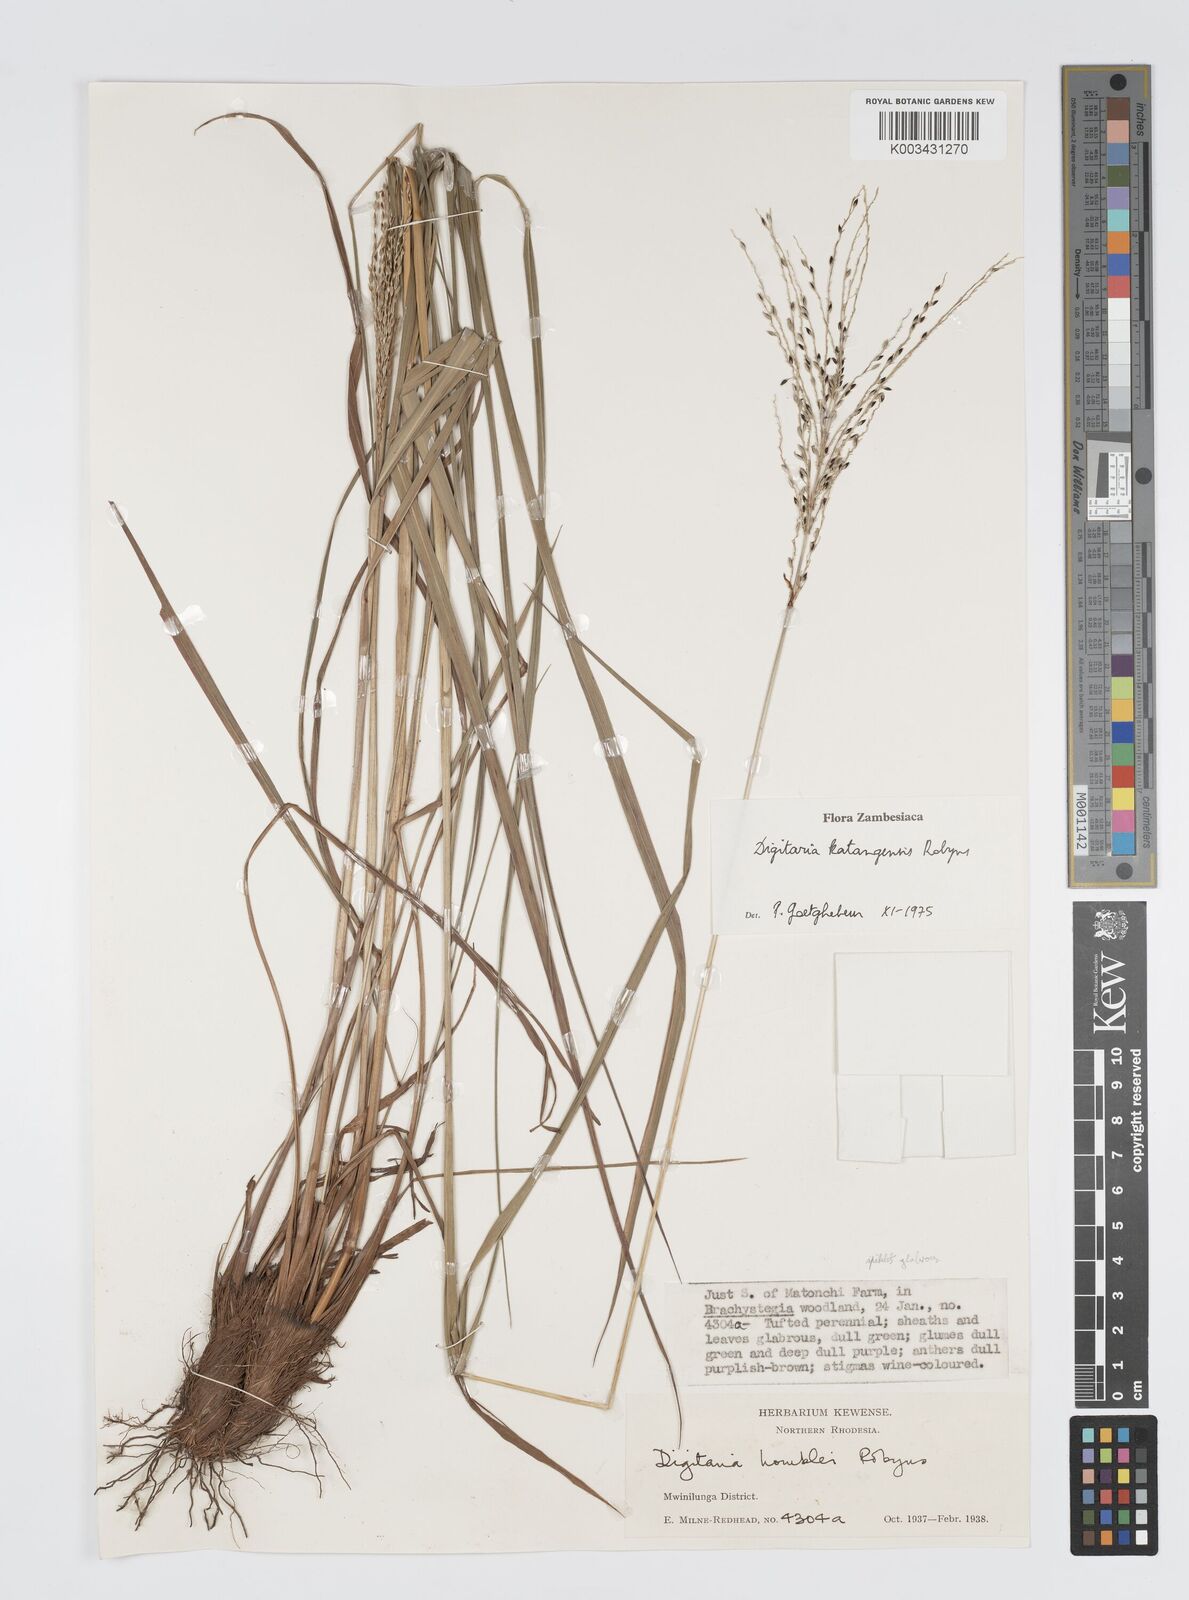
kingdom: Plantae
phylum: Tracheophyta
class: Liliopsida
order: Poales
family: Poaceae
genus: Digitaria
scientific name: Digitaria compressa
